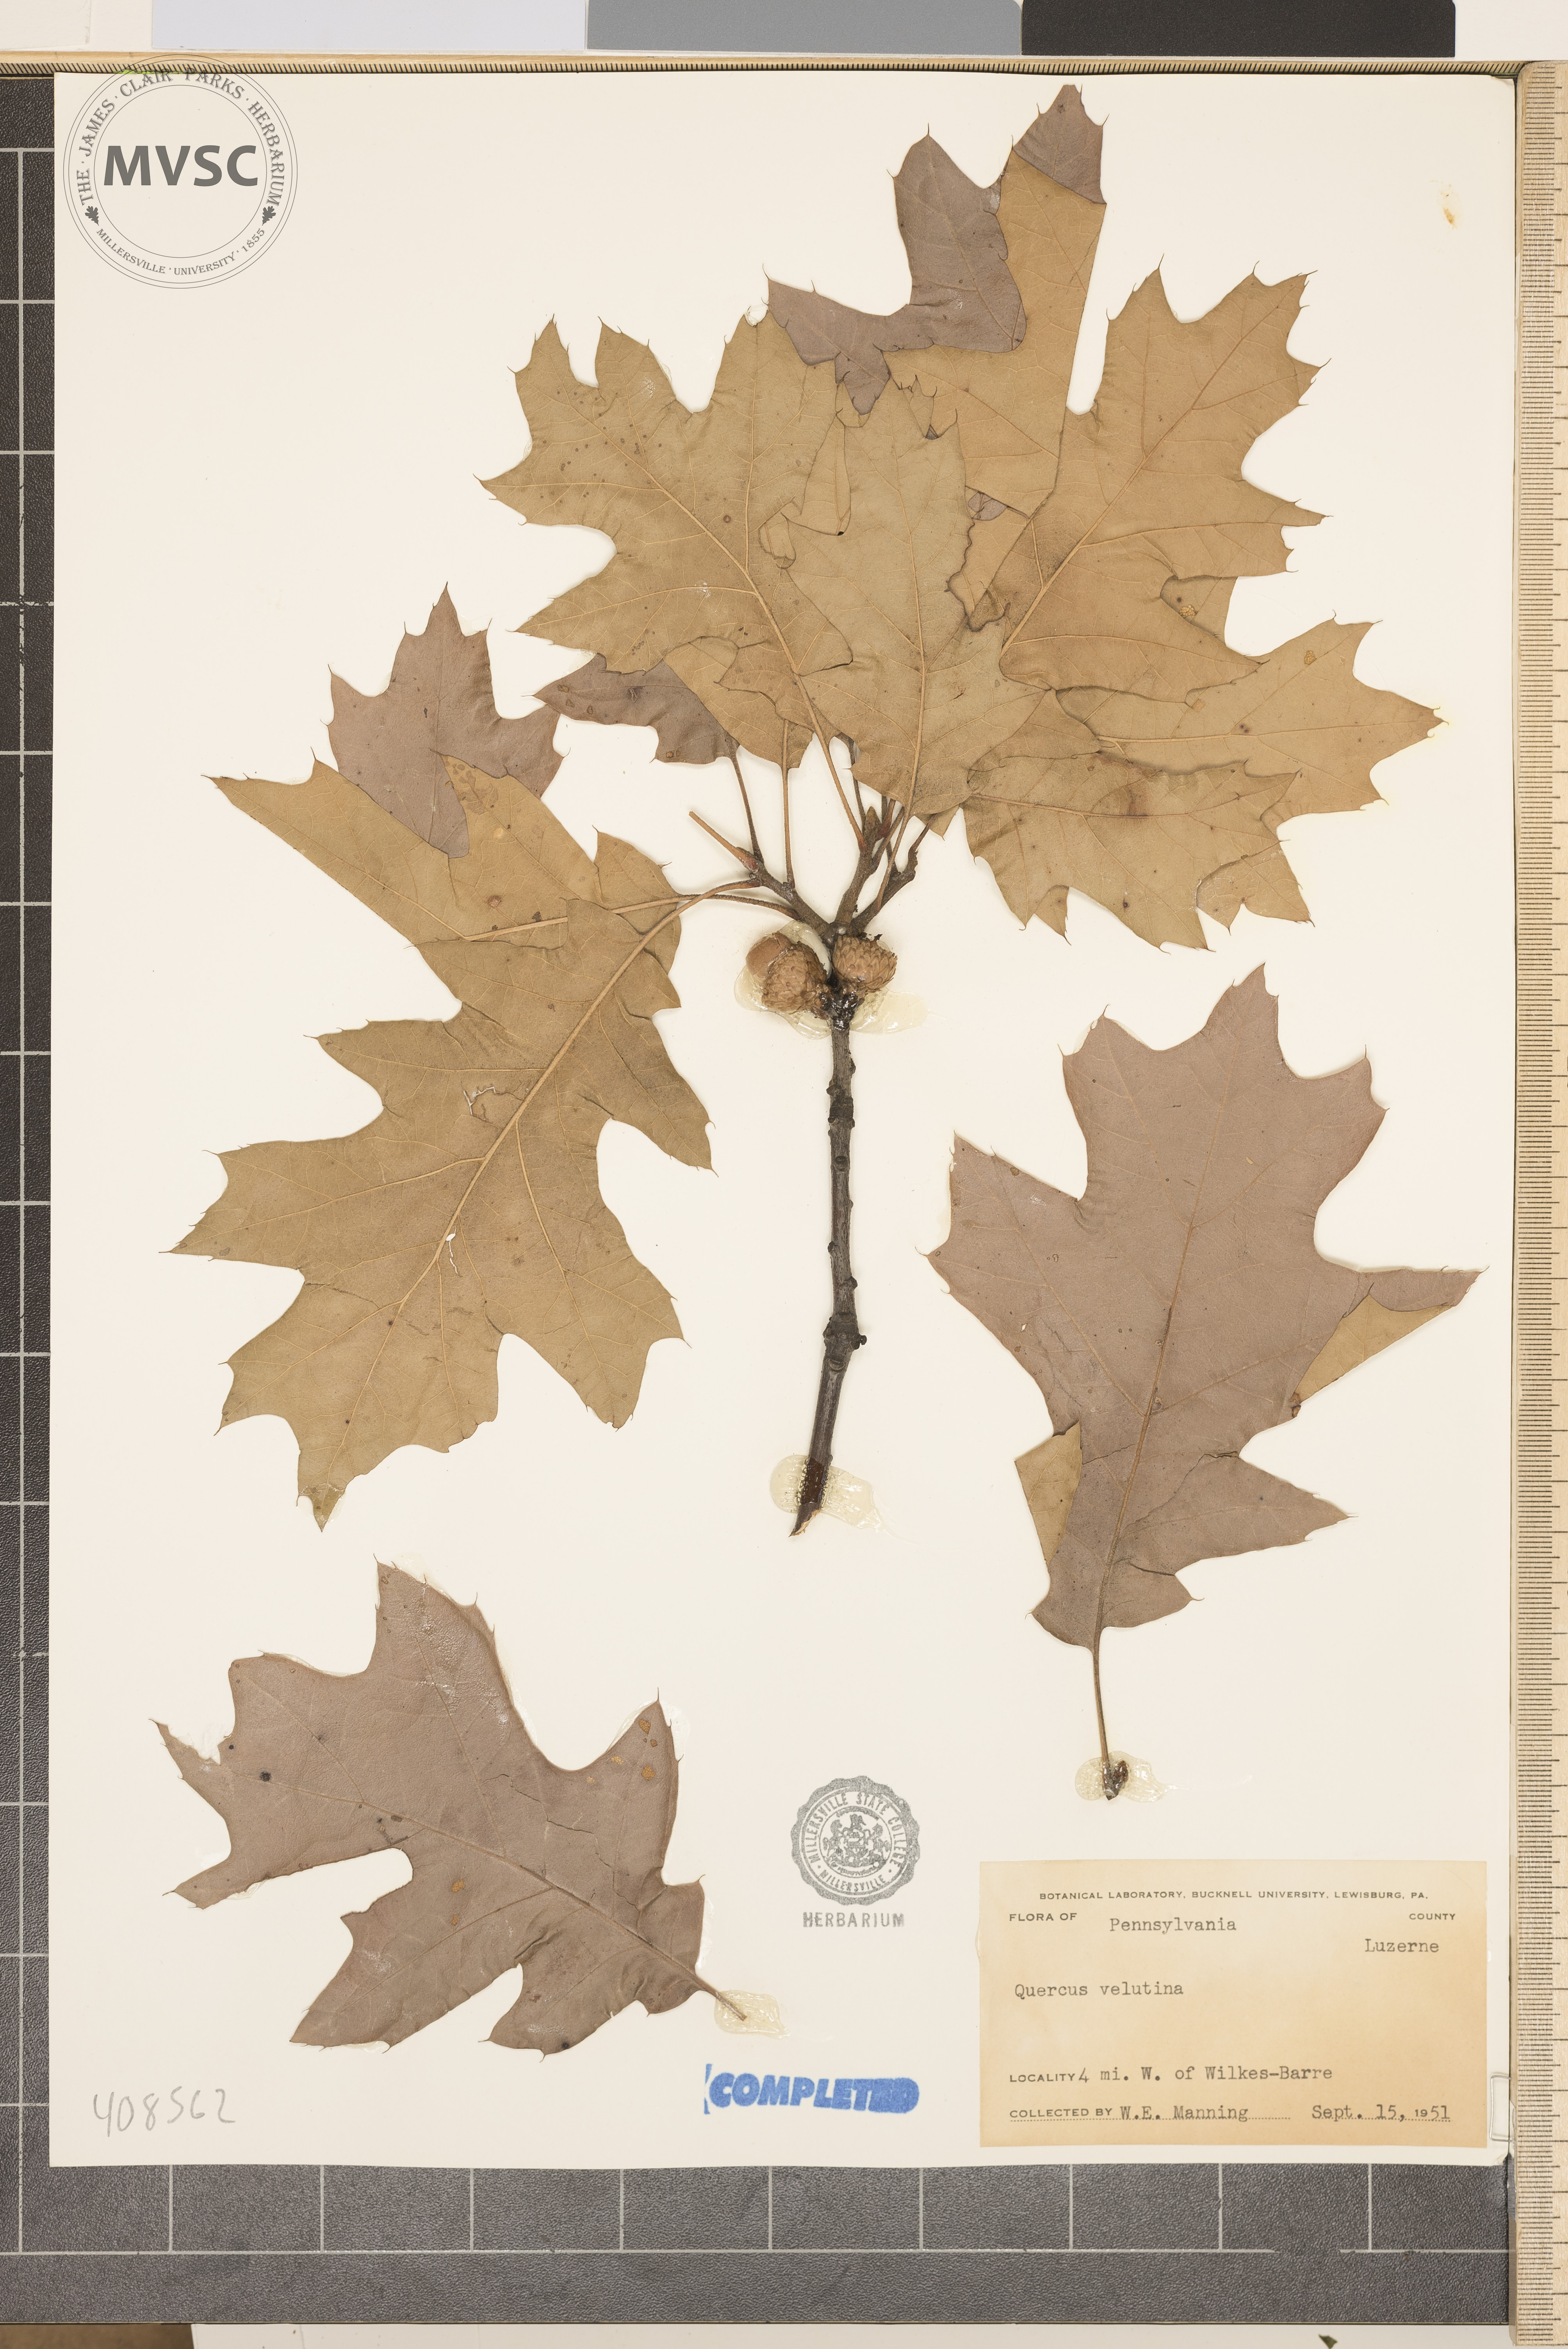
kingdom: Plantae
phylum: Tracheophyta
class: Magnoliopsida
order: Fagales
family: Fagaceae
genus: Quercus
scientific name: Quercus velutina
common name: Black oak
